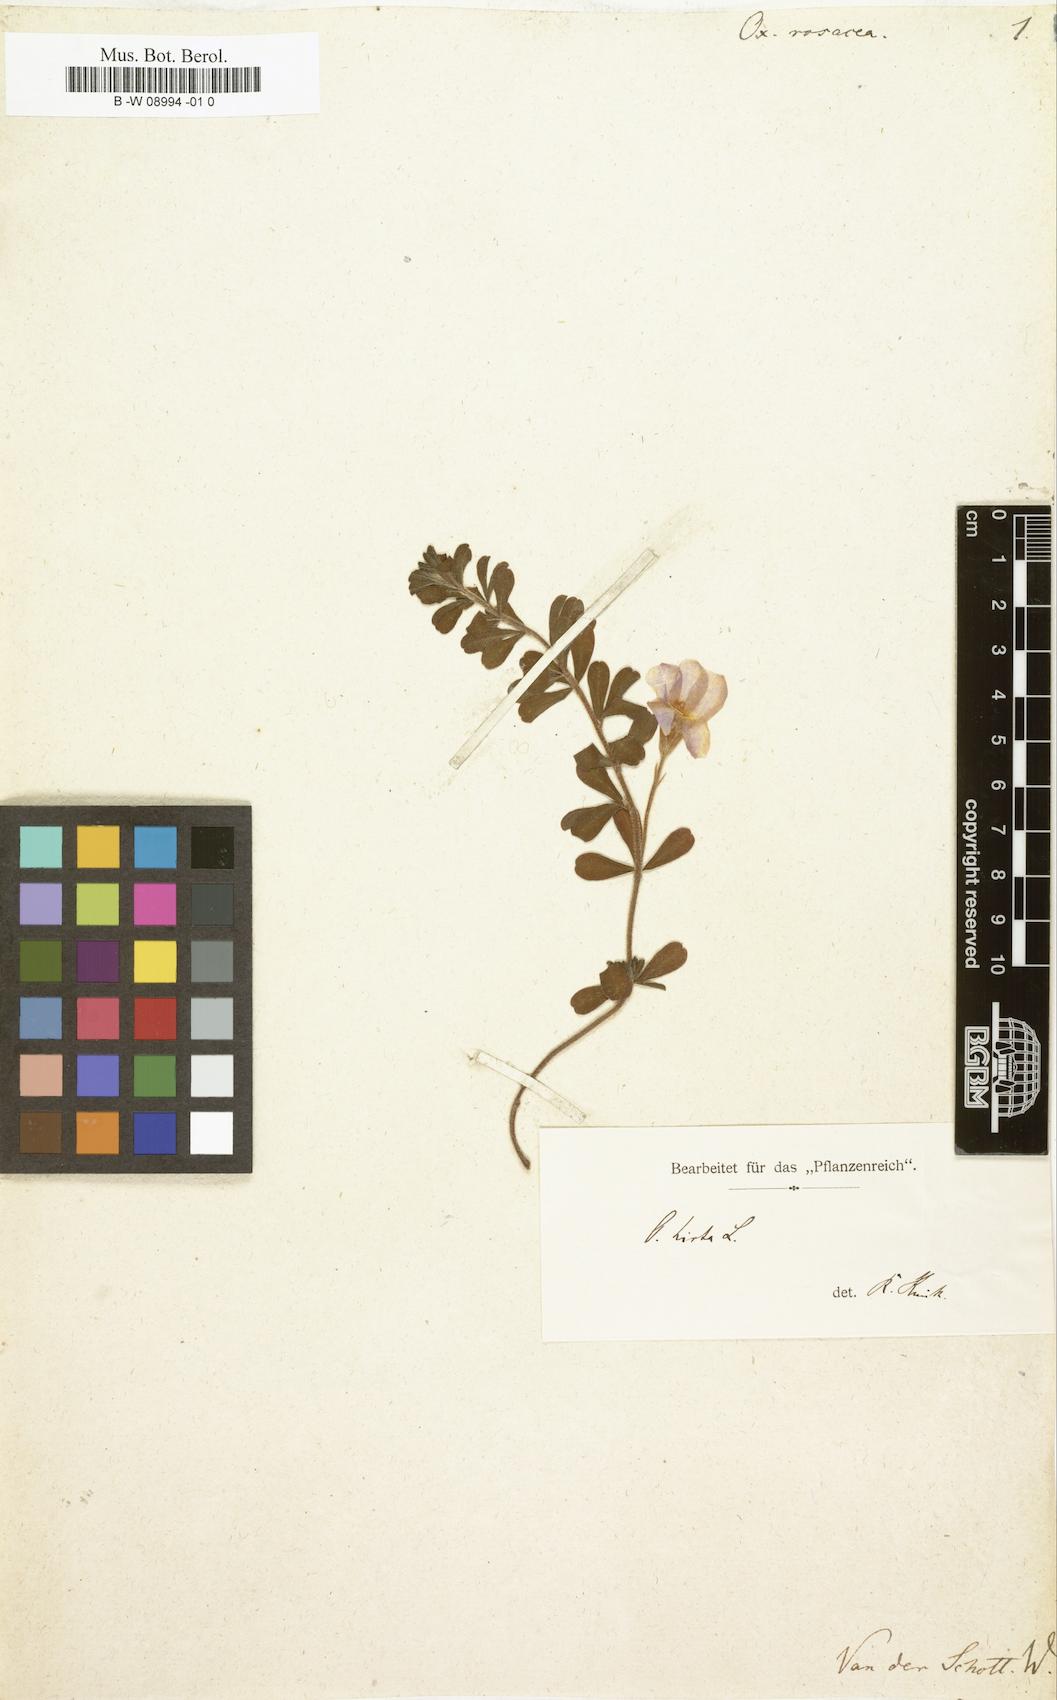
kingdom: Plantae
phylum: Tracheophyta
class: Magnoliopsida
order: Oxalidales
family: Oxalidaceae
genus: Oxalis
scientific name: Oxalis
